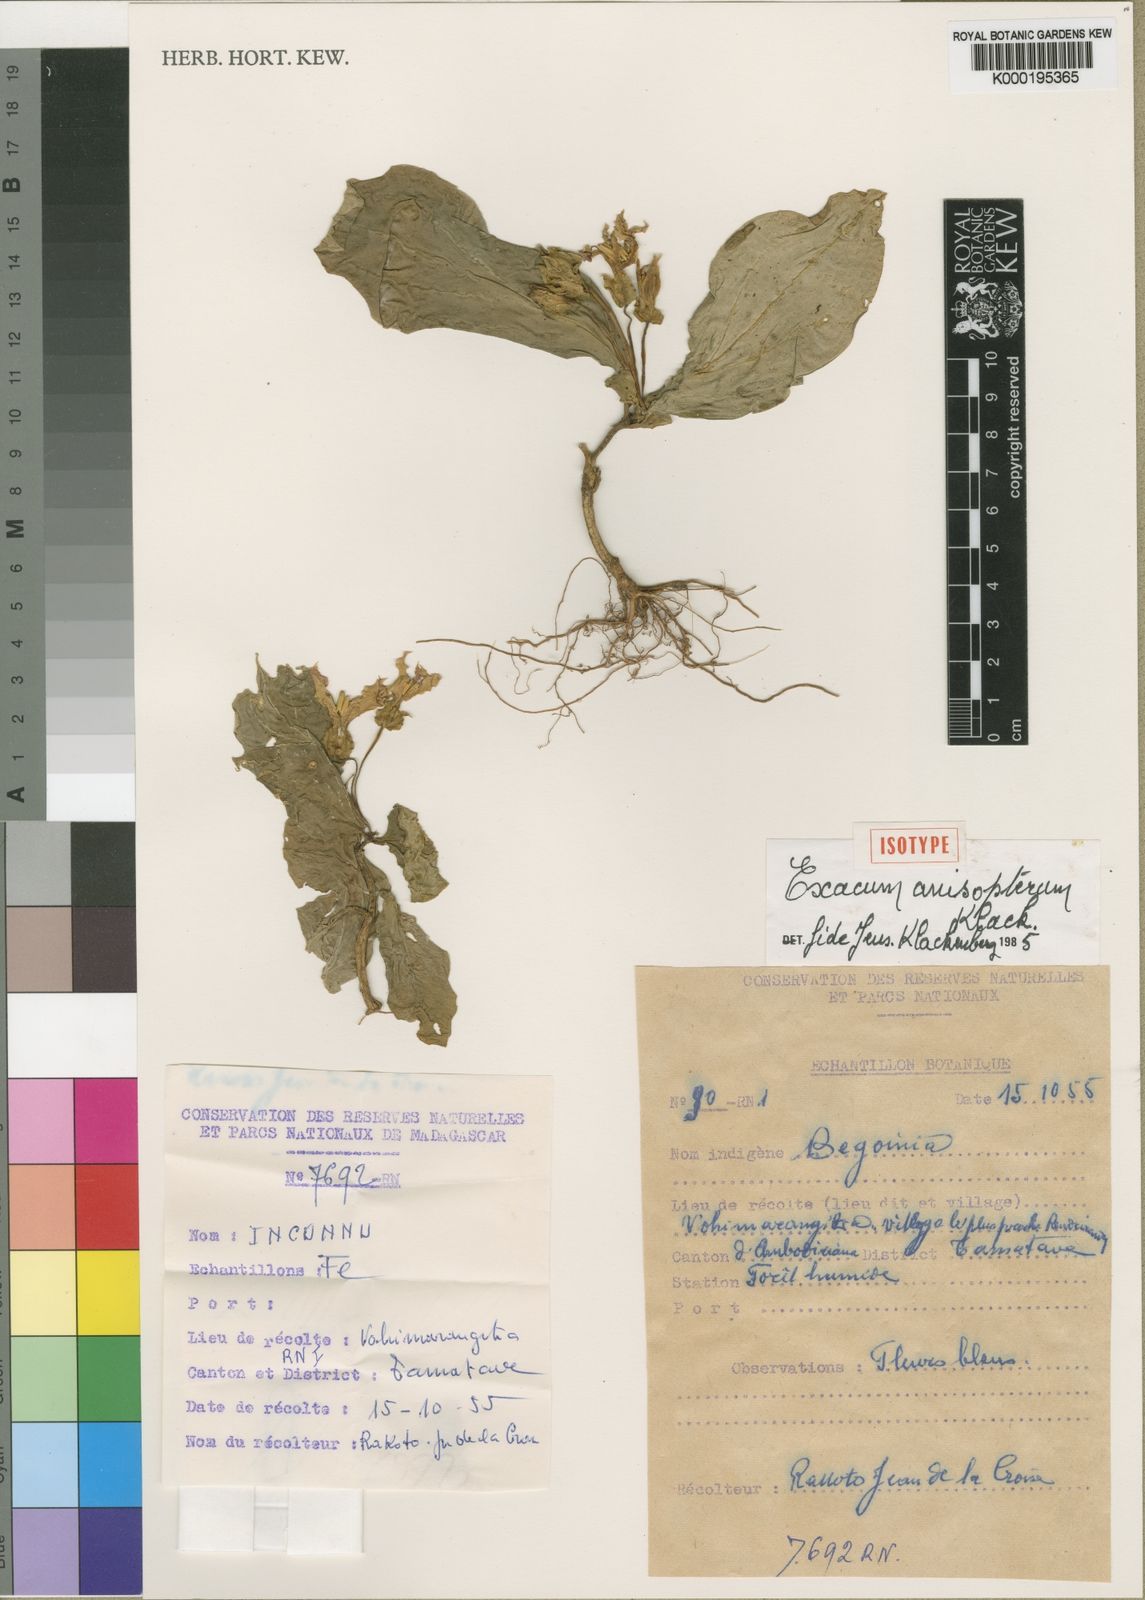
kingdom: Plantae
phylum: Tracheophyta
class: Magnoliopsida
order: Gentianales
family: Gentianaceae
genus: Exacum
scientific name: Exacum anisopterum
